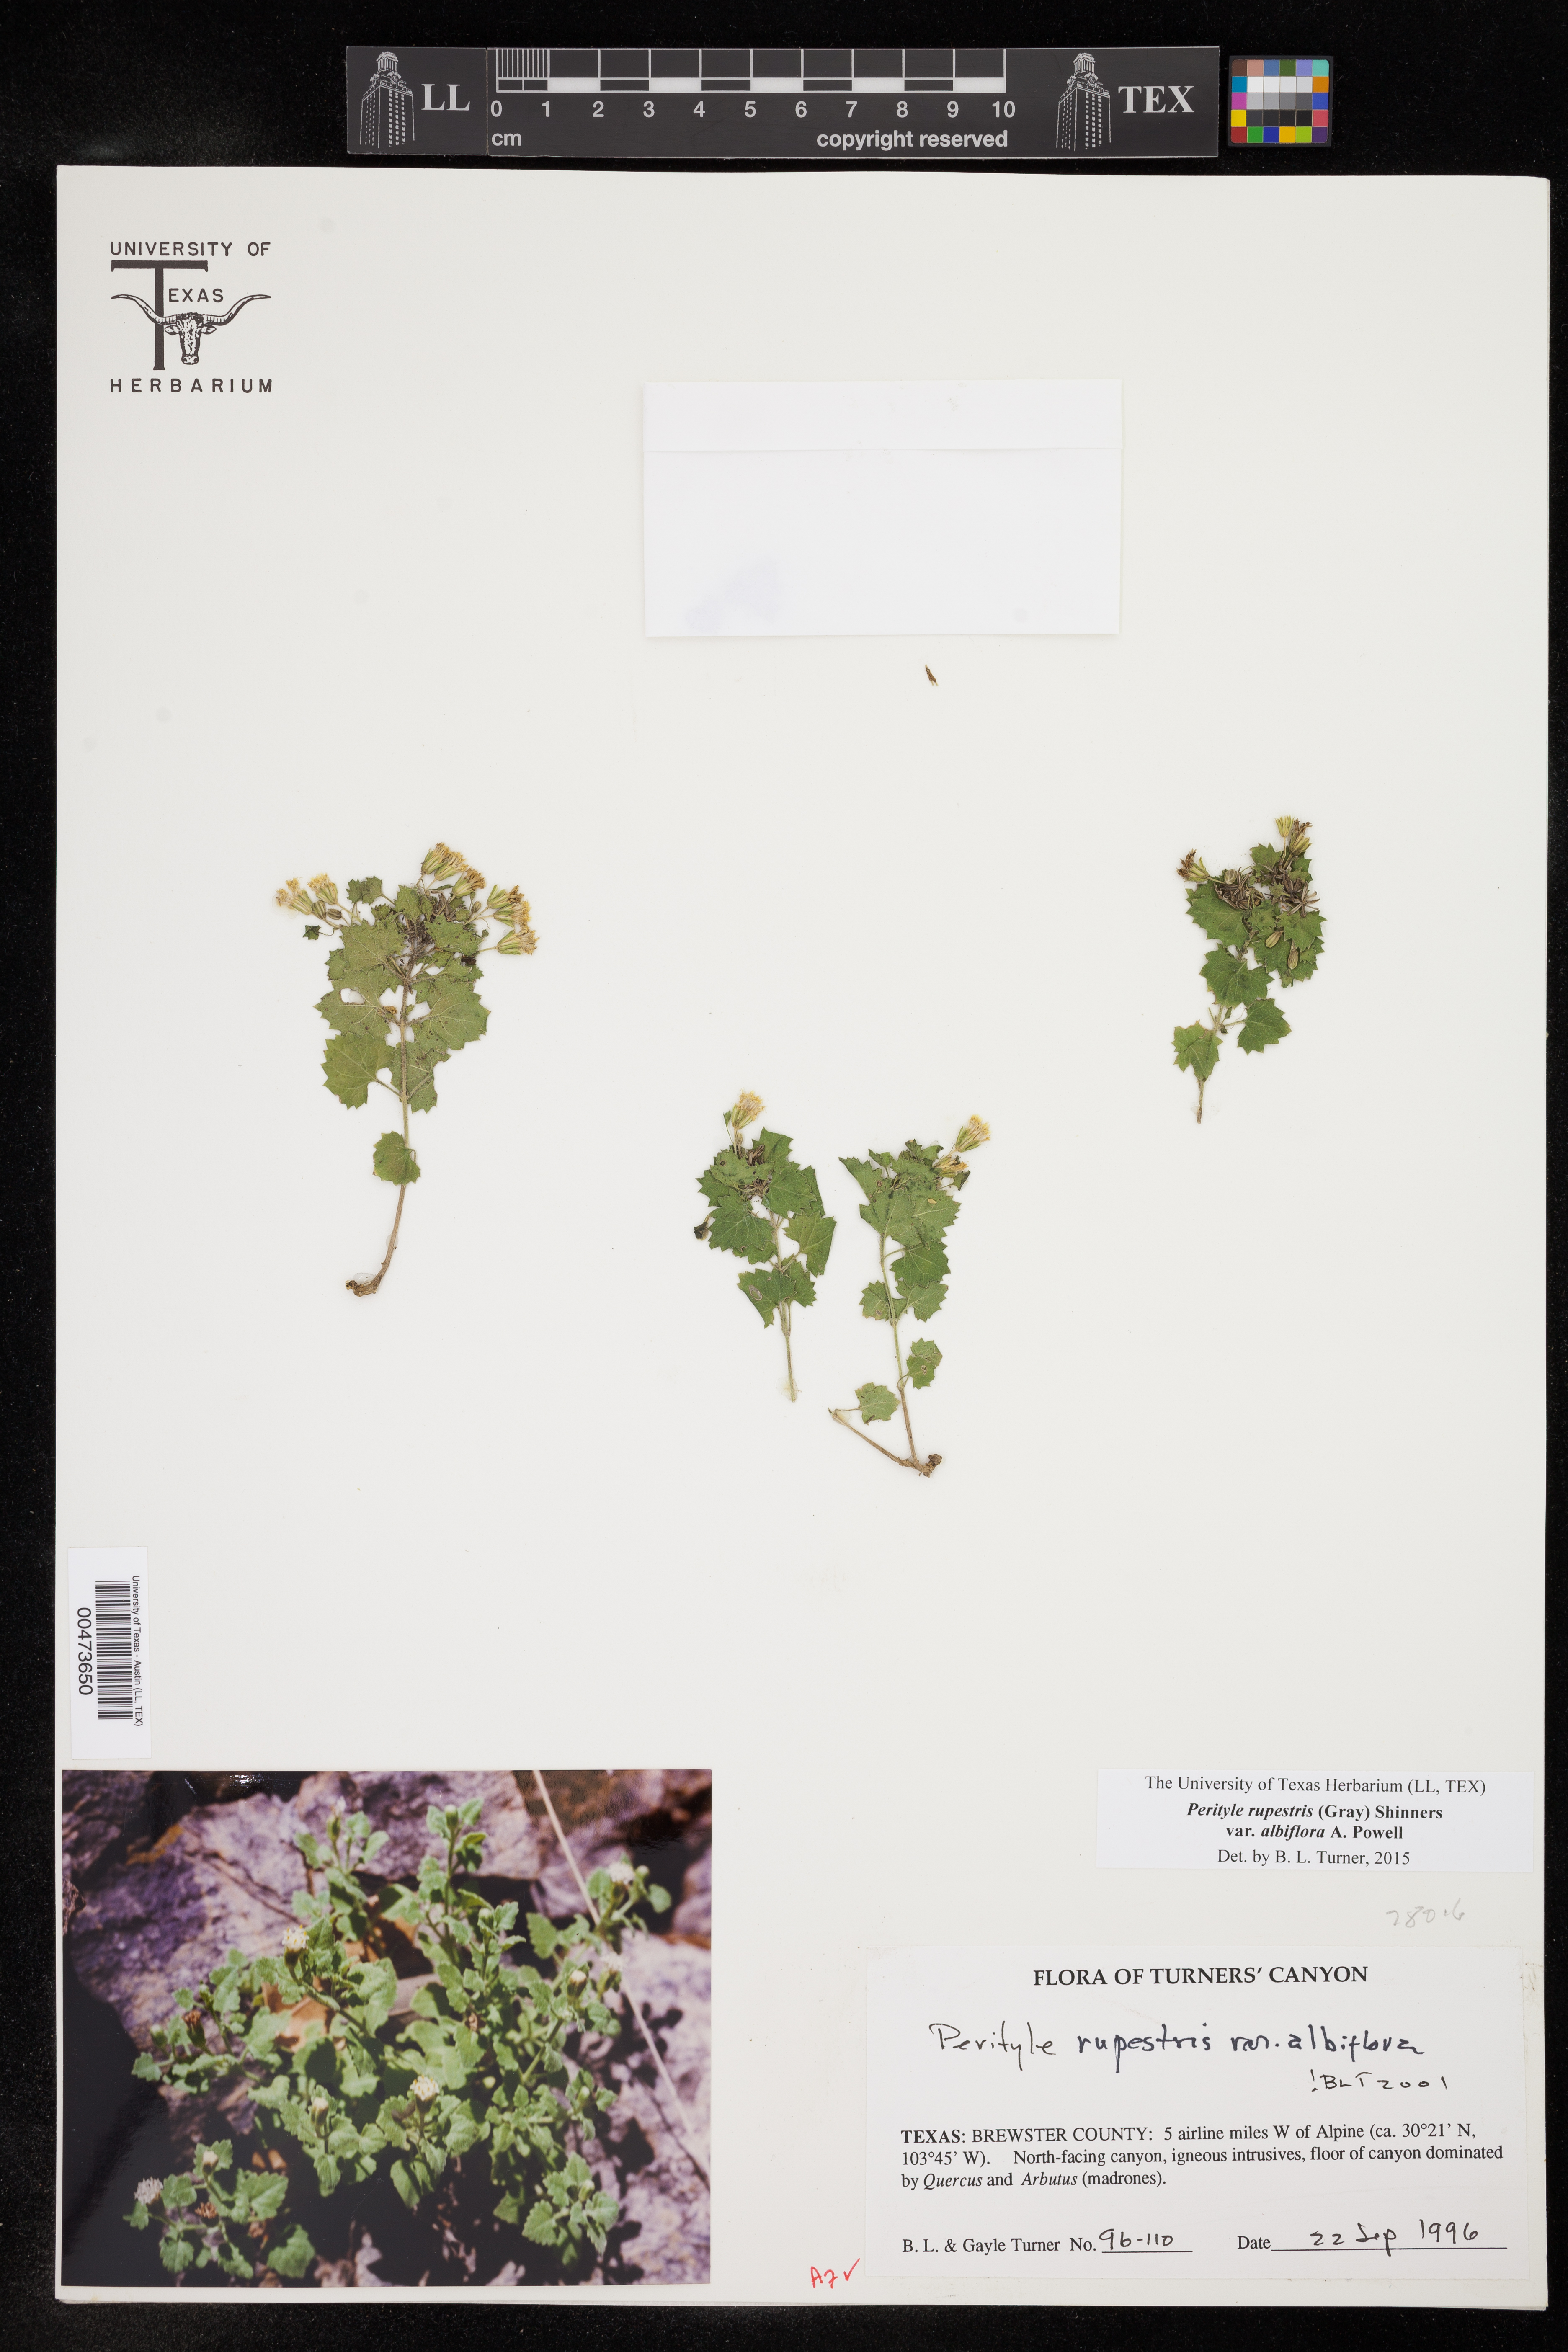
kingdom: Plantae
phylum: Tracheophyta
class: Magnoliopsida
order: Asterales
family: Asteraceae
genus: Laphamia
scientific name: Laphamia rupestris
